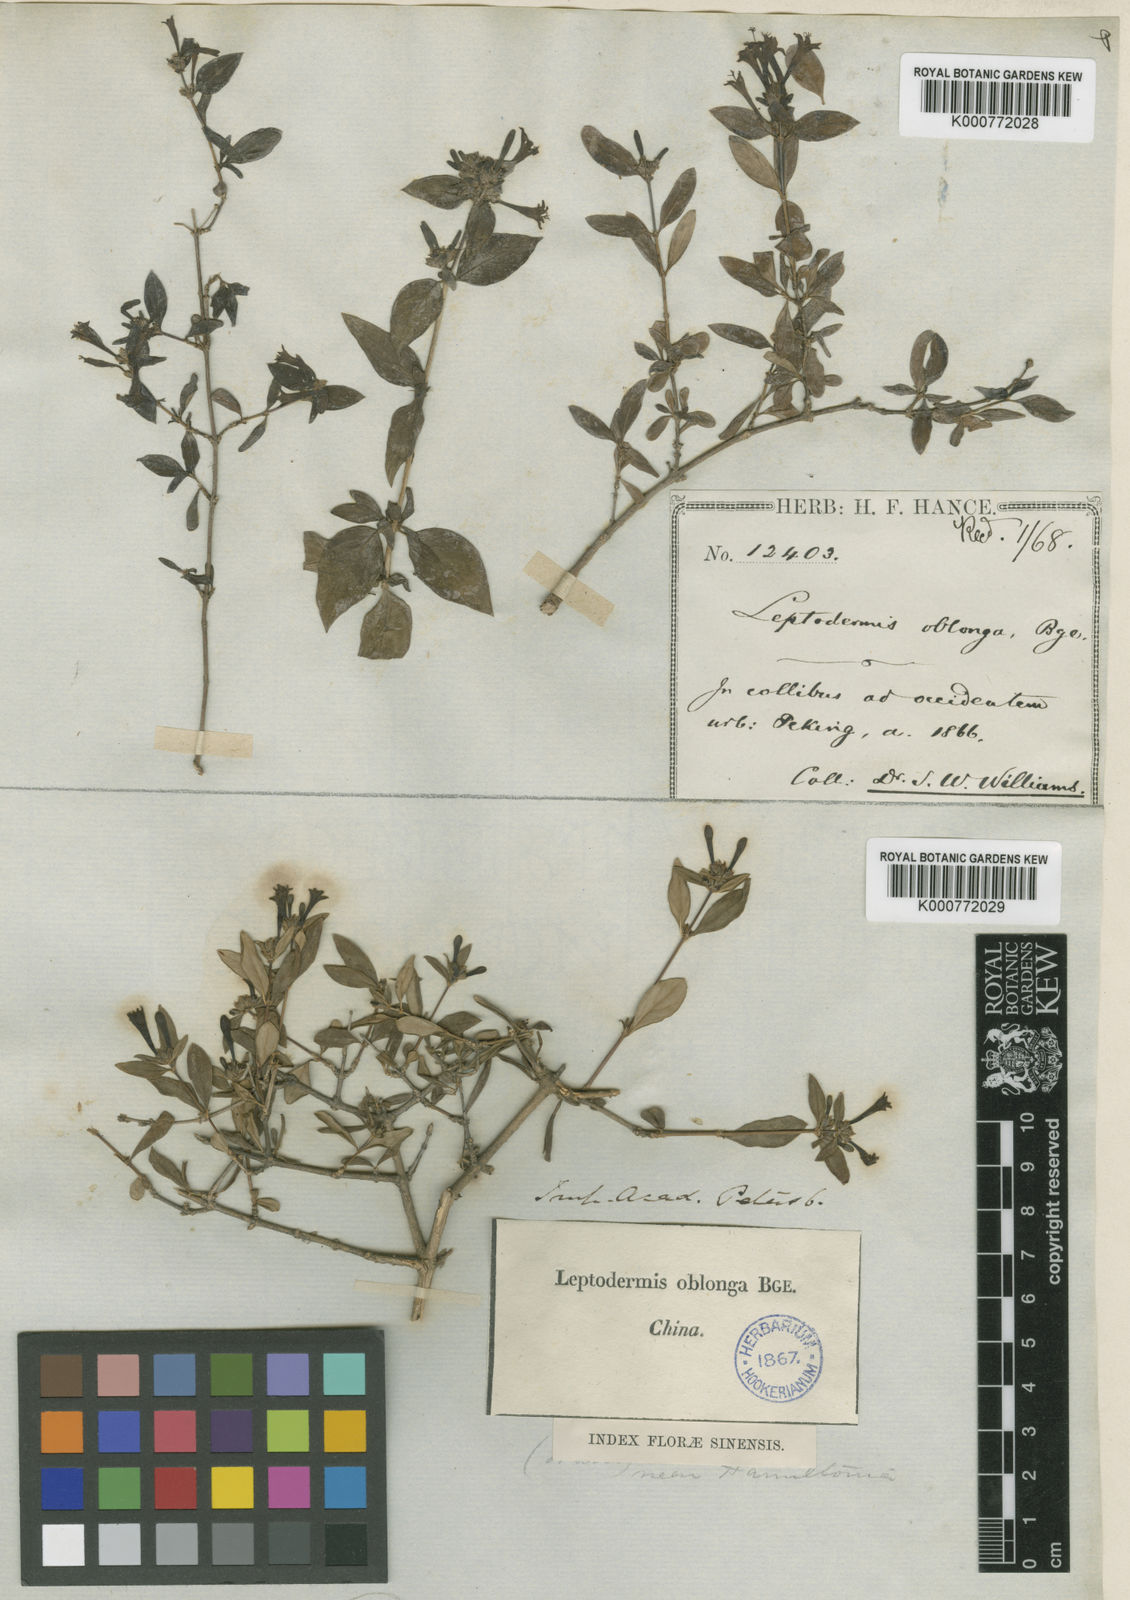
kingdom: Plantae
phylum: Tracheophyta
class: Magnoliopsida
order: Gentianales
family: Rubiaceae
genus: Leptodermis
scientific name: Leptodermis oblonga
